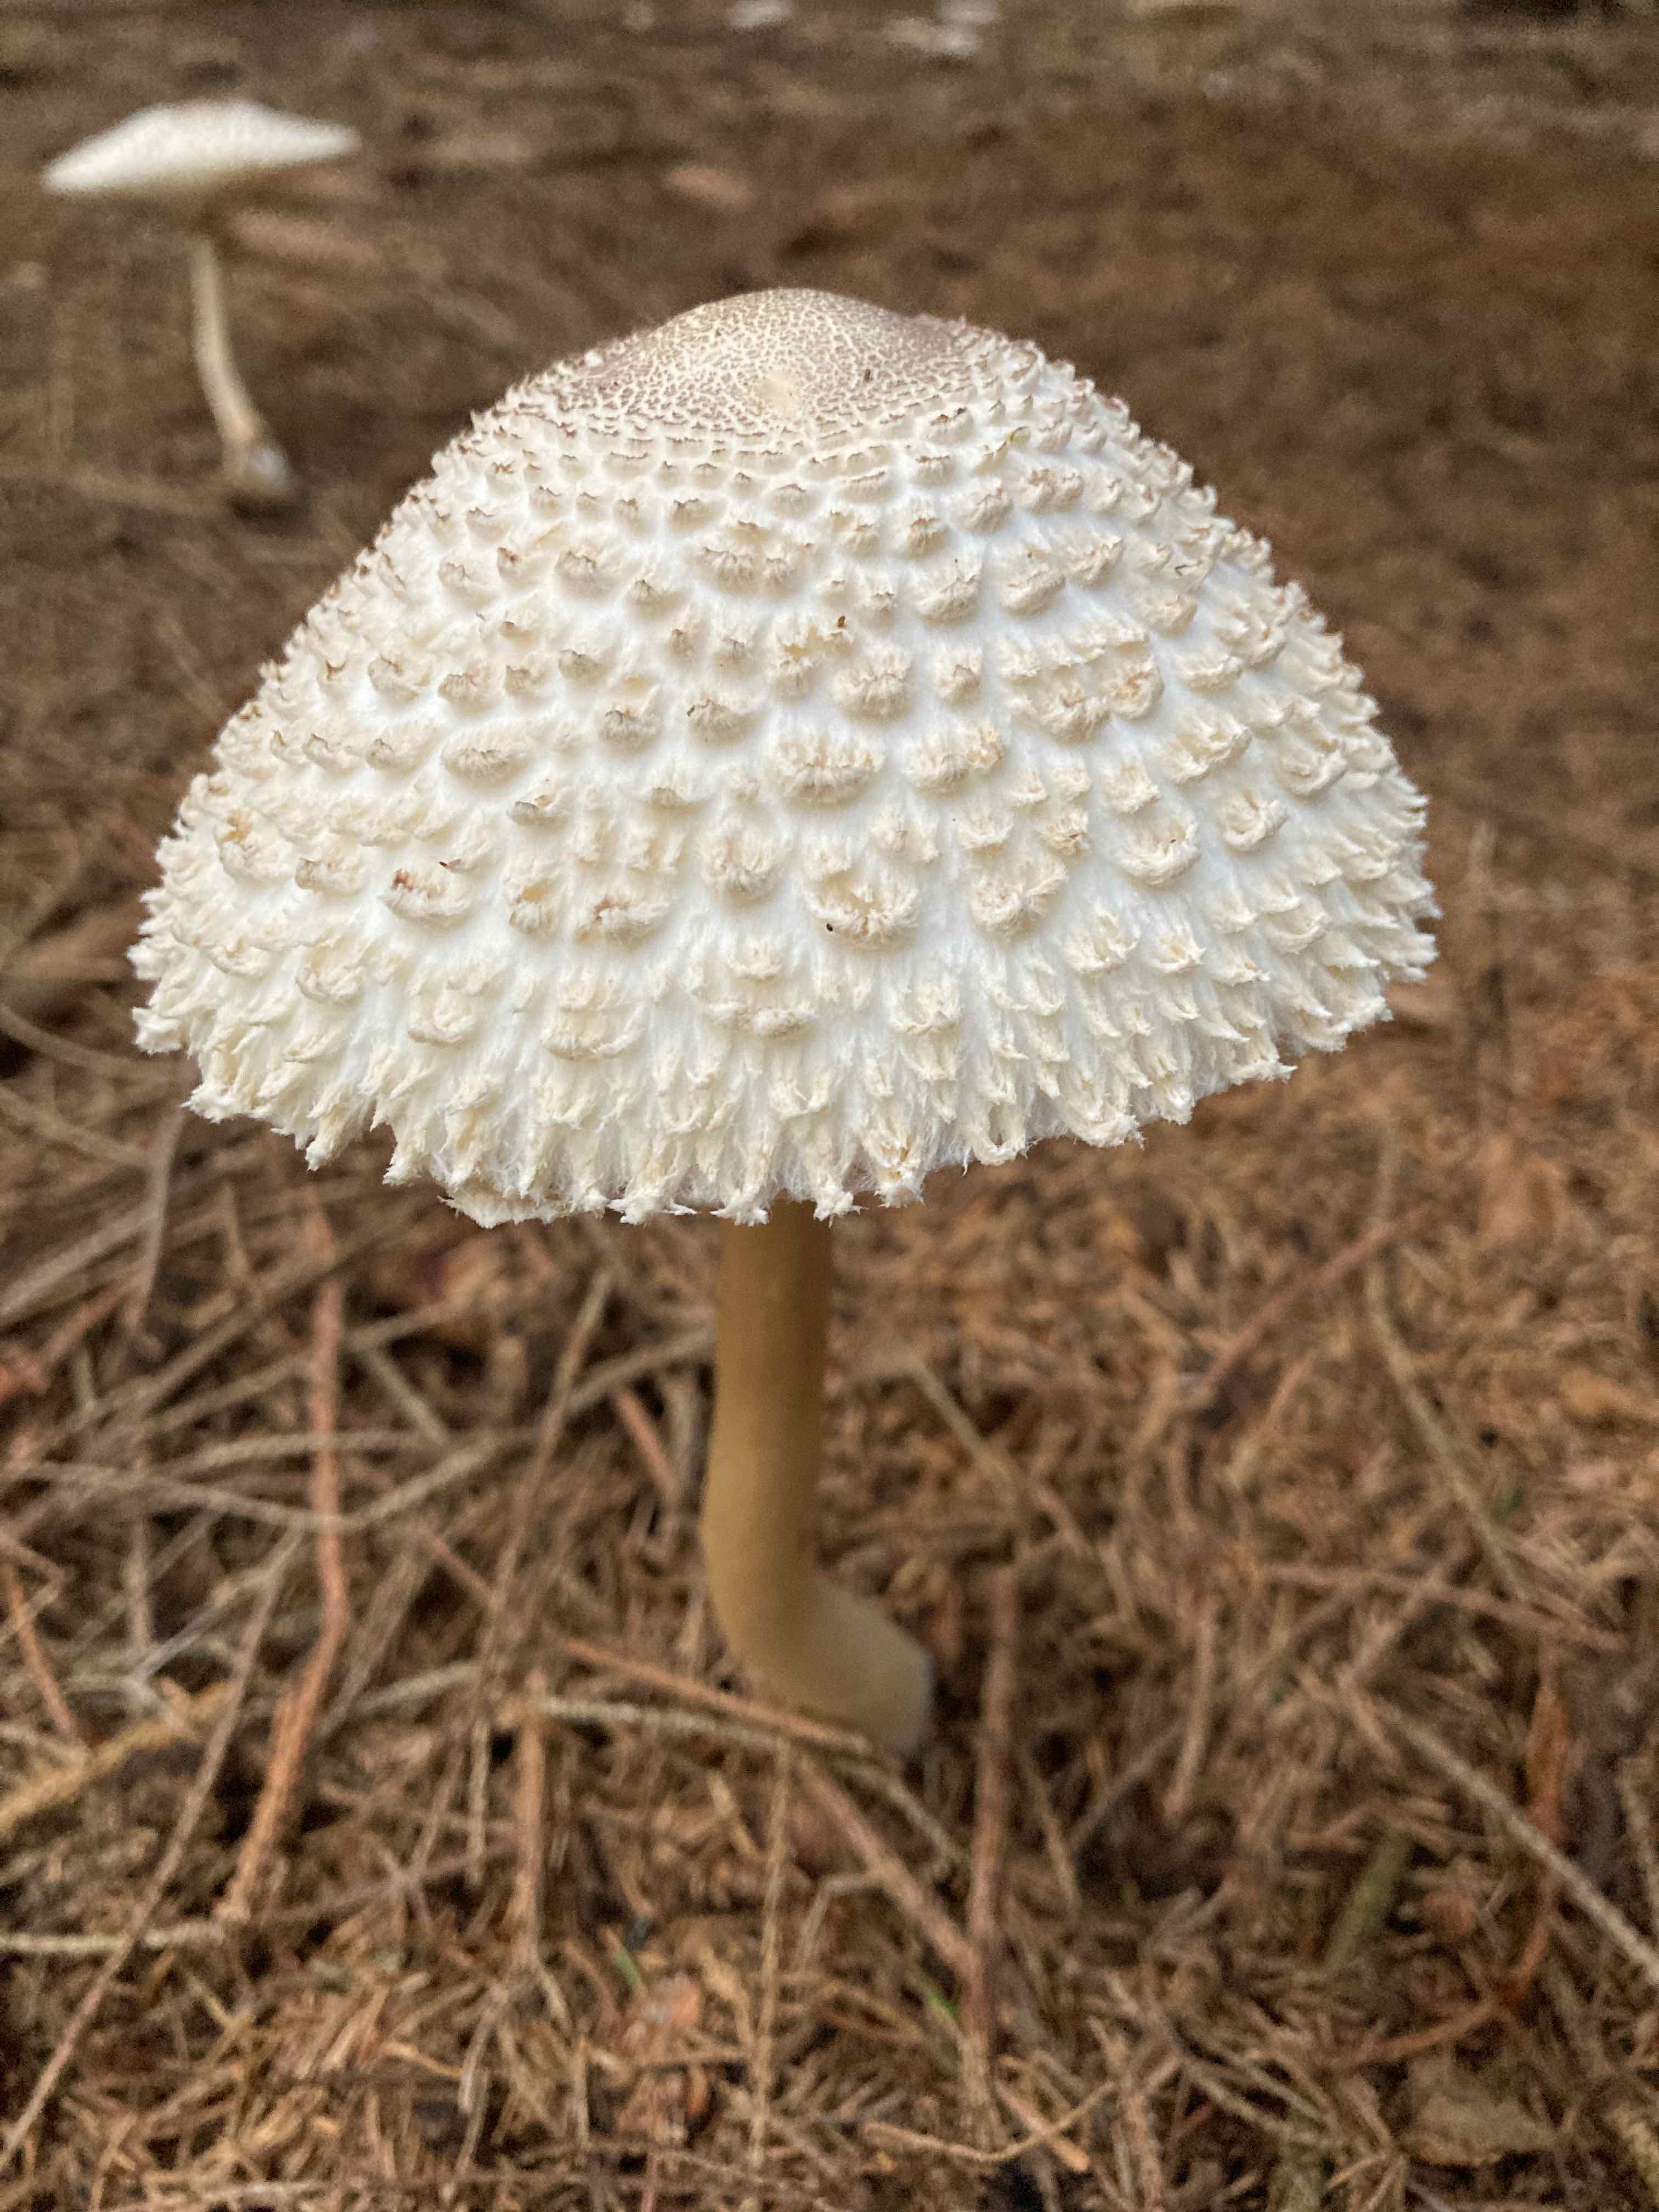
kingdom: Fungi
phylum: Basidiomycota
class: Agaricomycetes
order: Agaricales
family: Agaricaceae
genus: Leucoagaricus
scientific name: Leucoagaricus nympharum
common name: gran-silkehat
